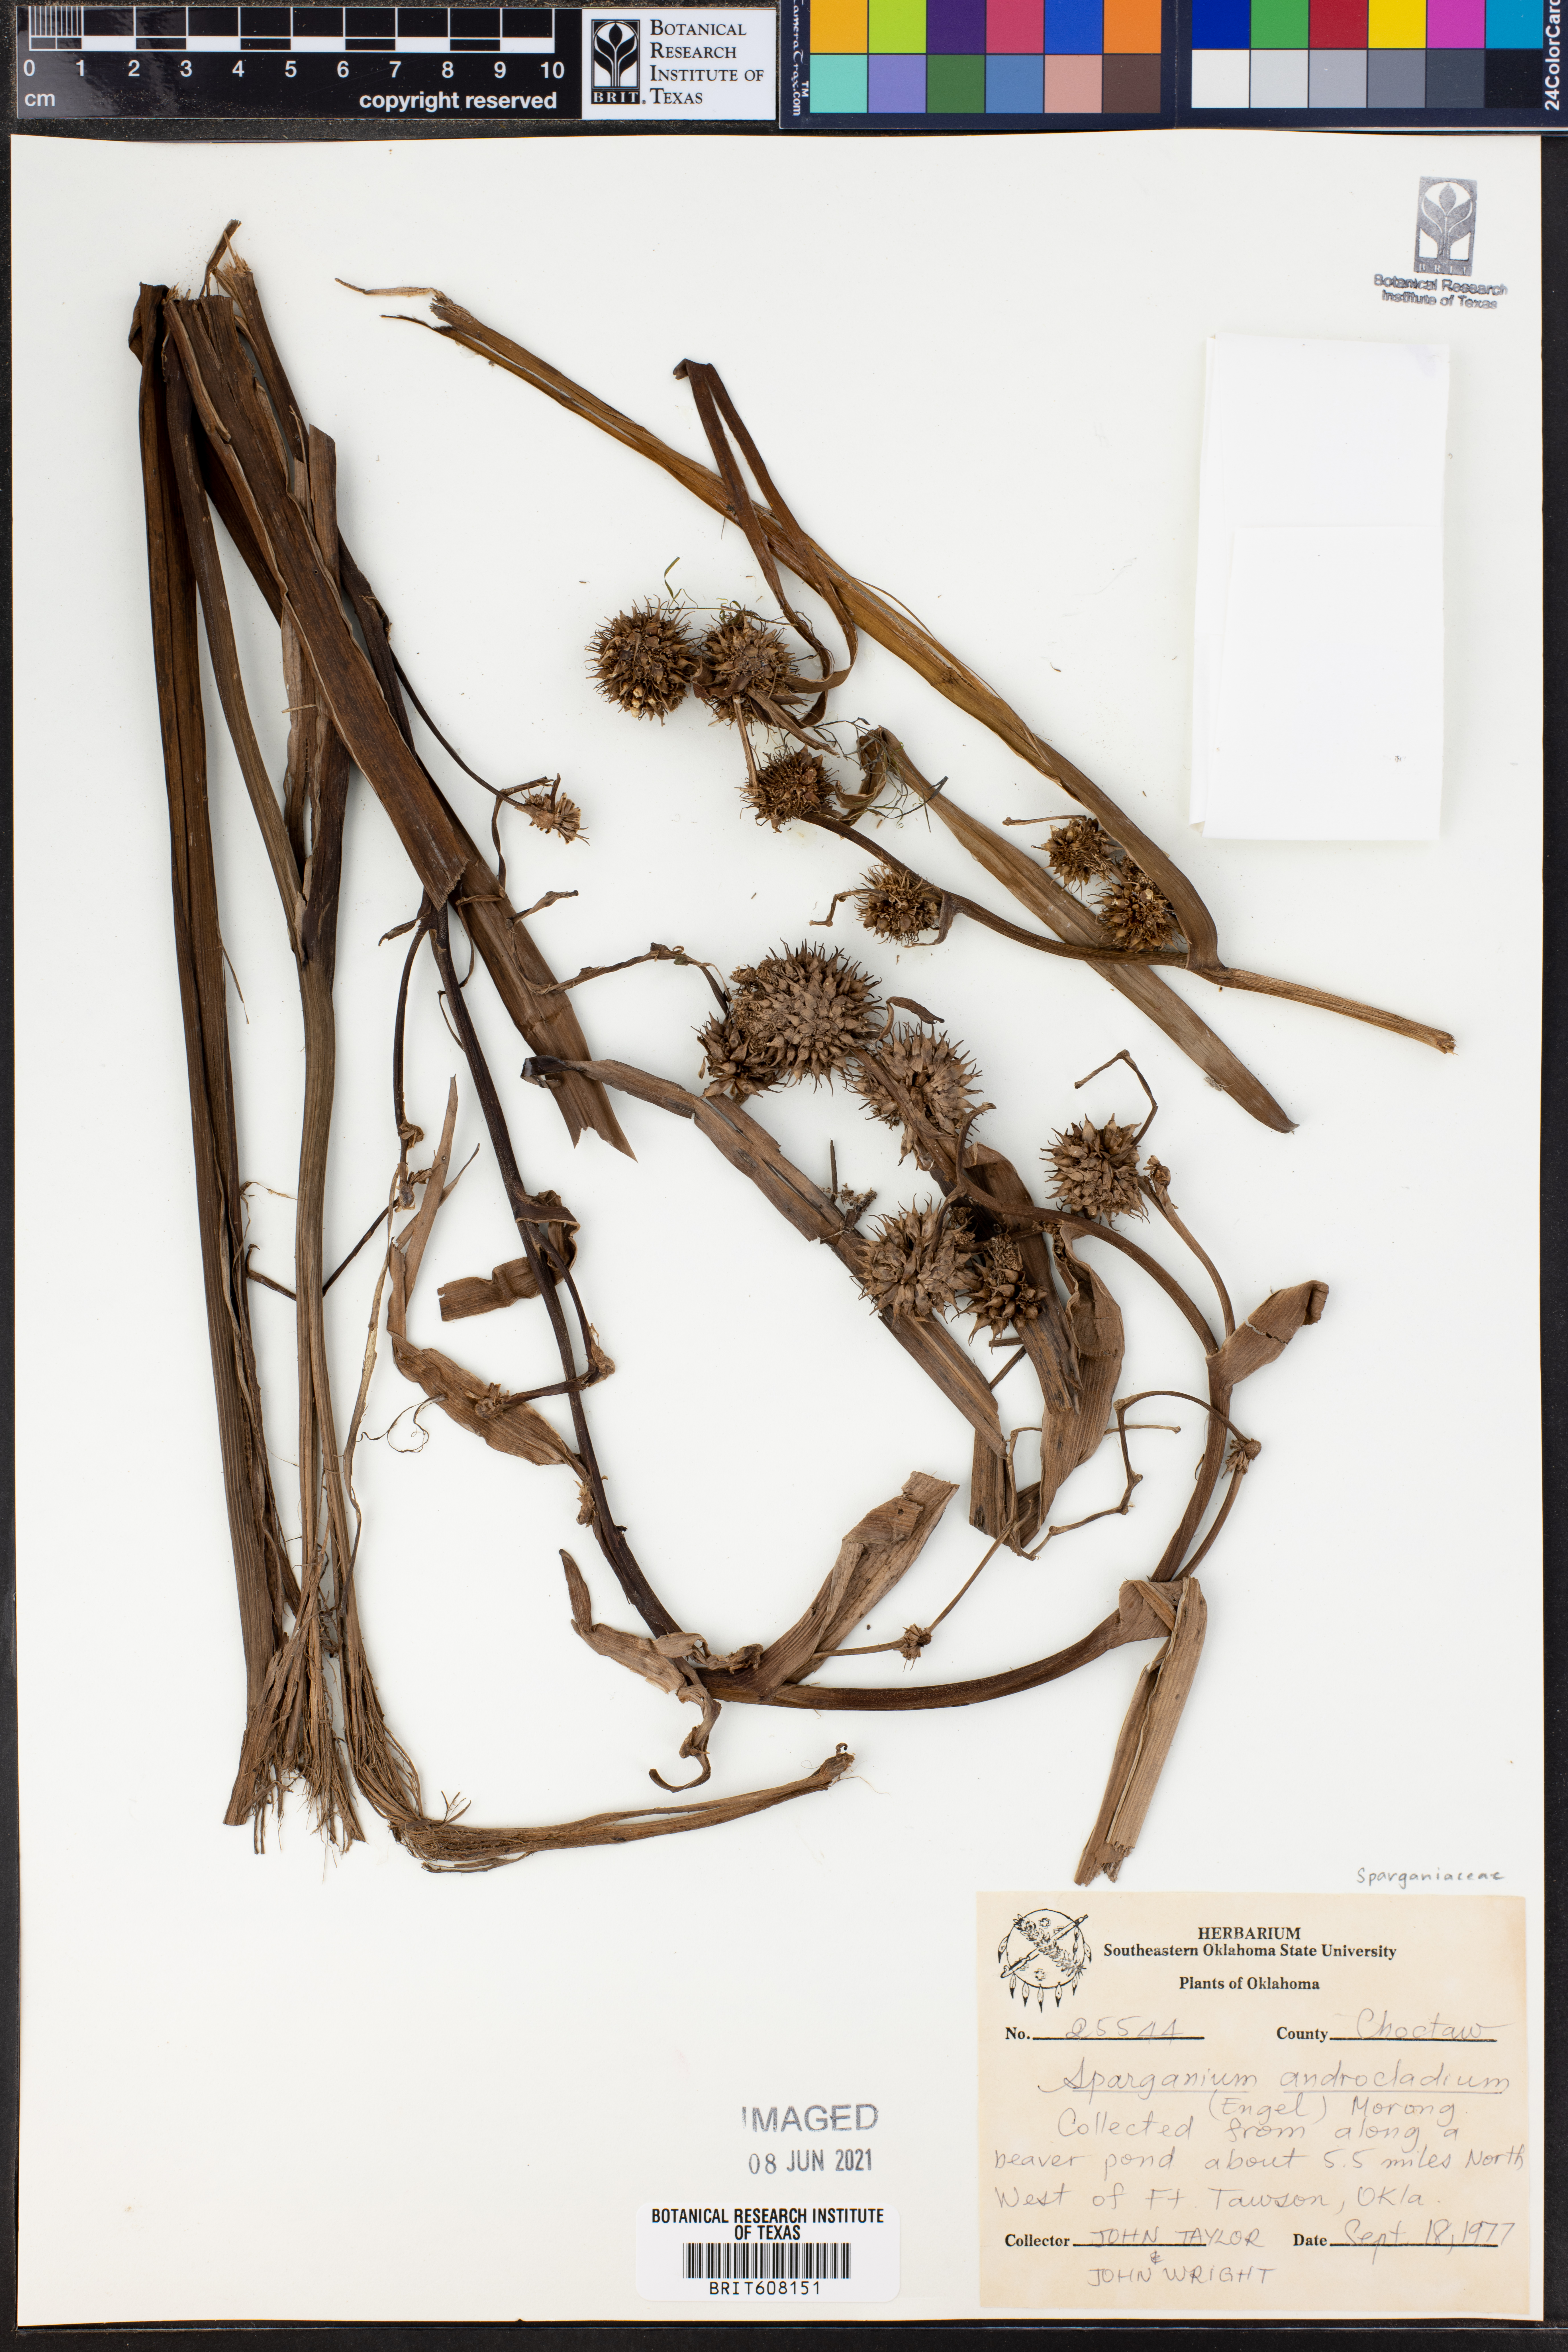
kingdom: Plantae
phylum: Tracheophyta
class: Liliopsida
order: Poales
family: Typhaceae
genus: Sparganium
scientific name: Sparganium androcladum
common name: Branched burreed
